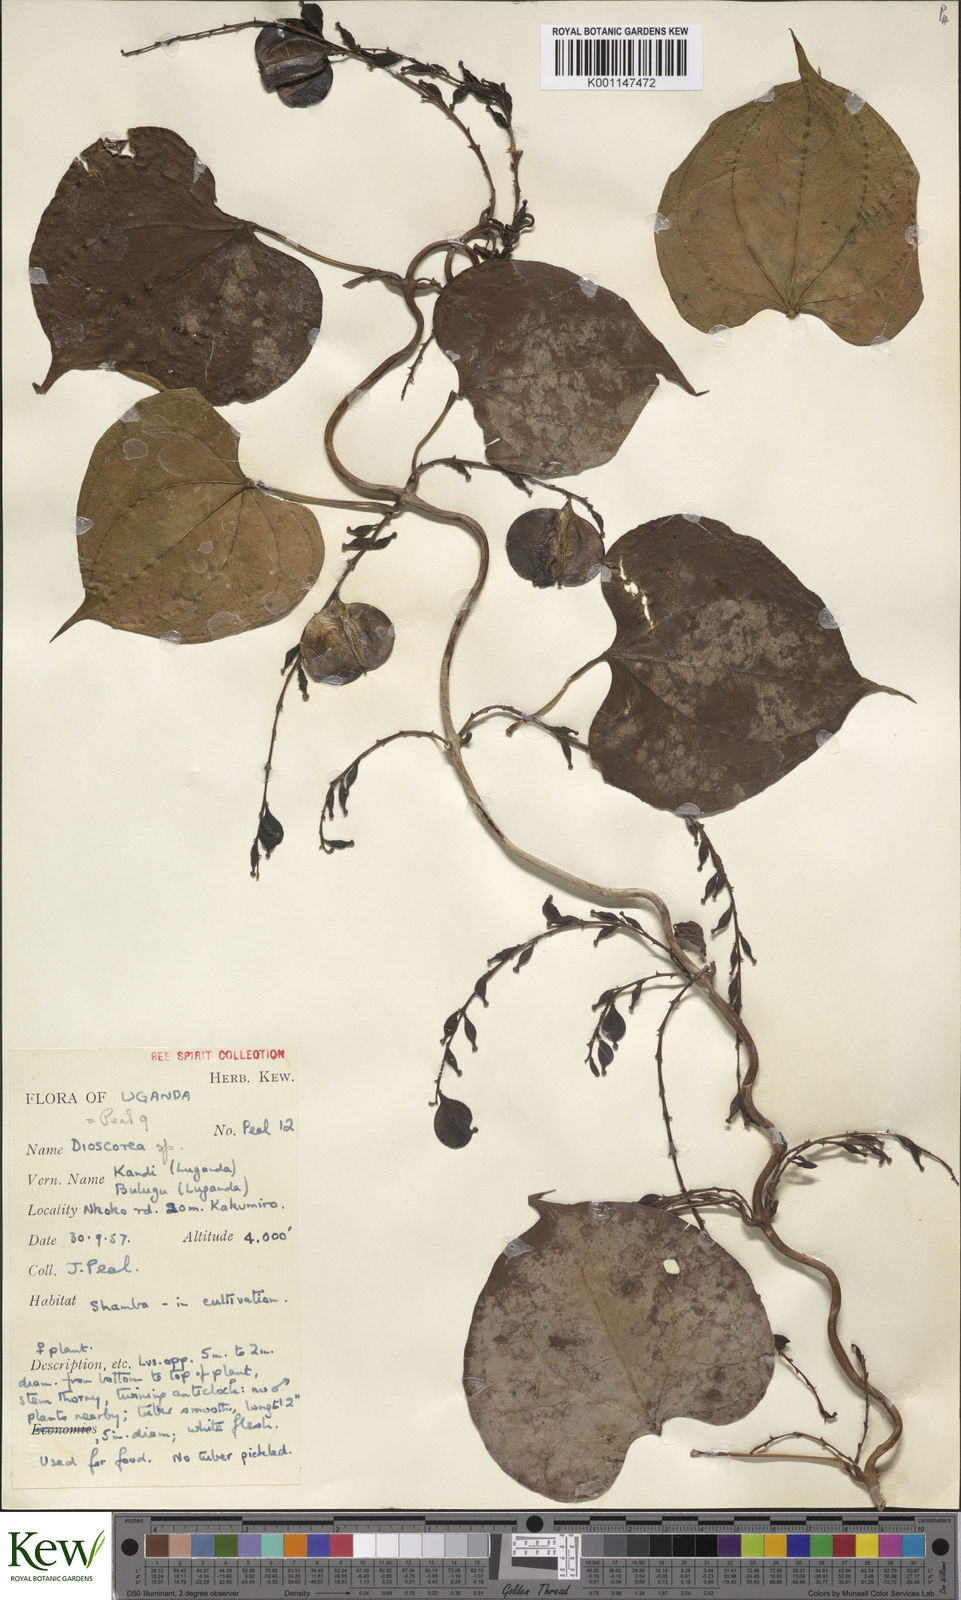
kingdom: Plantae
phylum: Tracheophyta
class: Liliopsida
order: Dioscoreales
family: Dioscoreaceae
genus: Dioscorea
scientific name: Dioscorea
